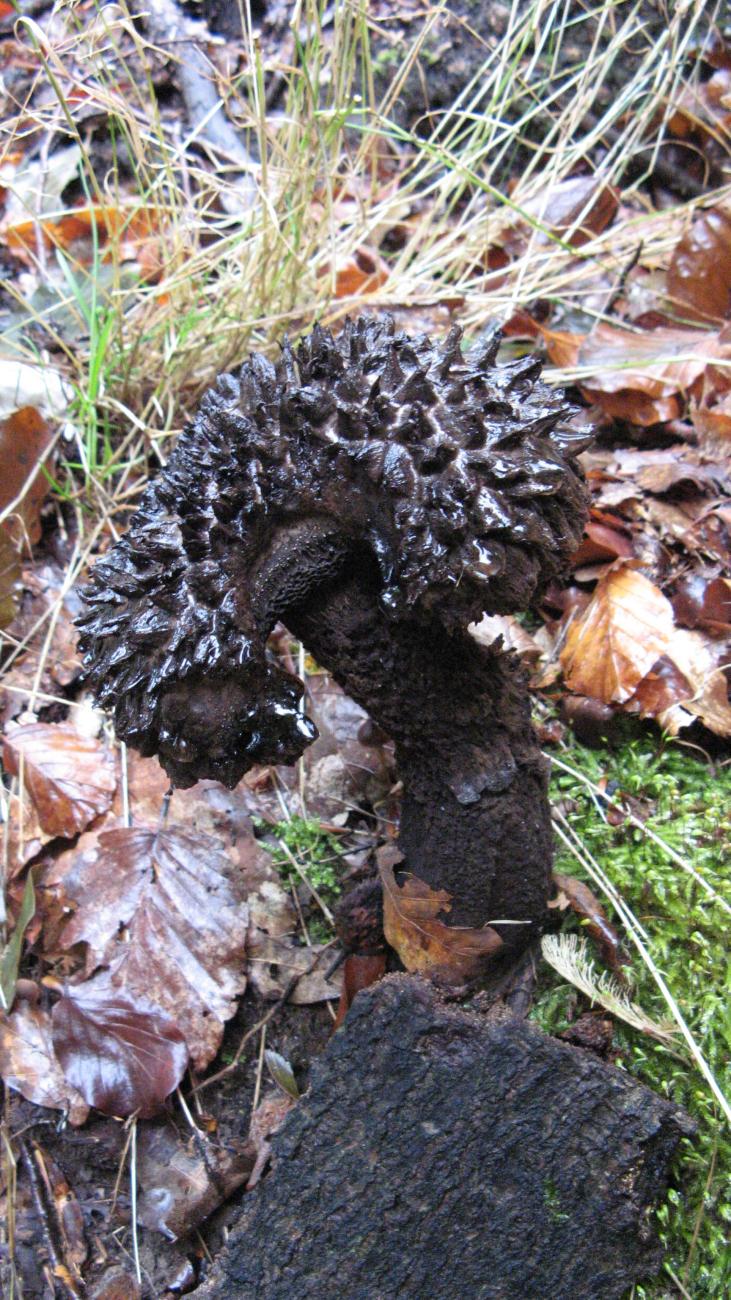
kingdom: Fungi
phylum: Basidiomycota
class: Agaricomycetes
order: Boletales
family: Boletaceae
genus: Strobilomyces
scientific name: Strobilomyces strobilaceus
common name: koglerørhat
